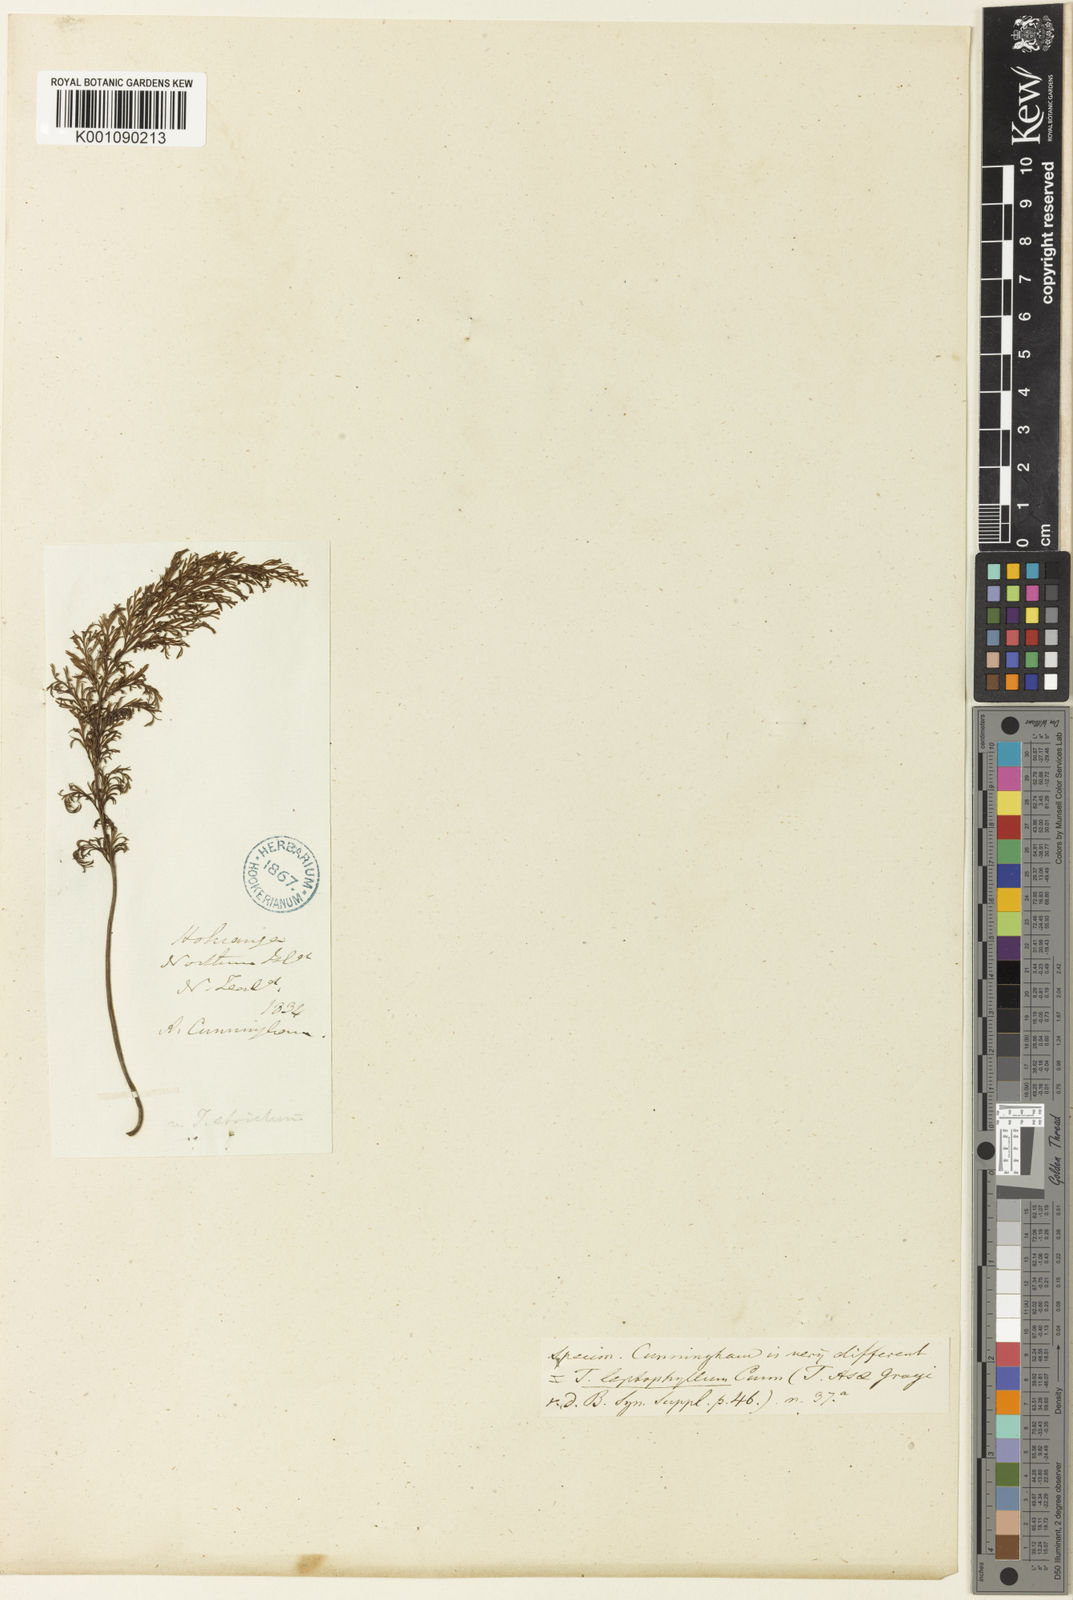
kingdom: Plantae
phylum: Tracheophyta
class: Polypodiopsida
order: Hymenophyllales
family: Hymenophyllaceae
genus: Abrodictyum
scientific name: Abrodictyum strictum
